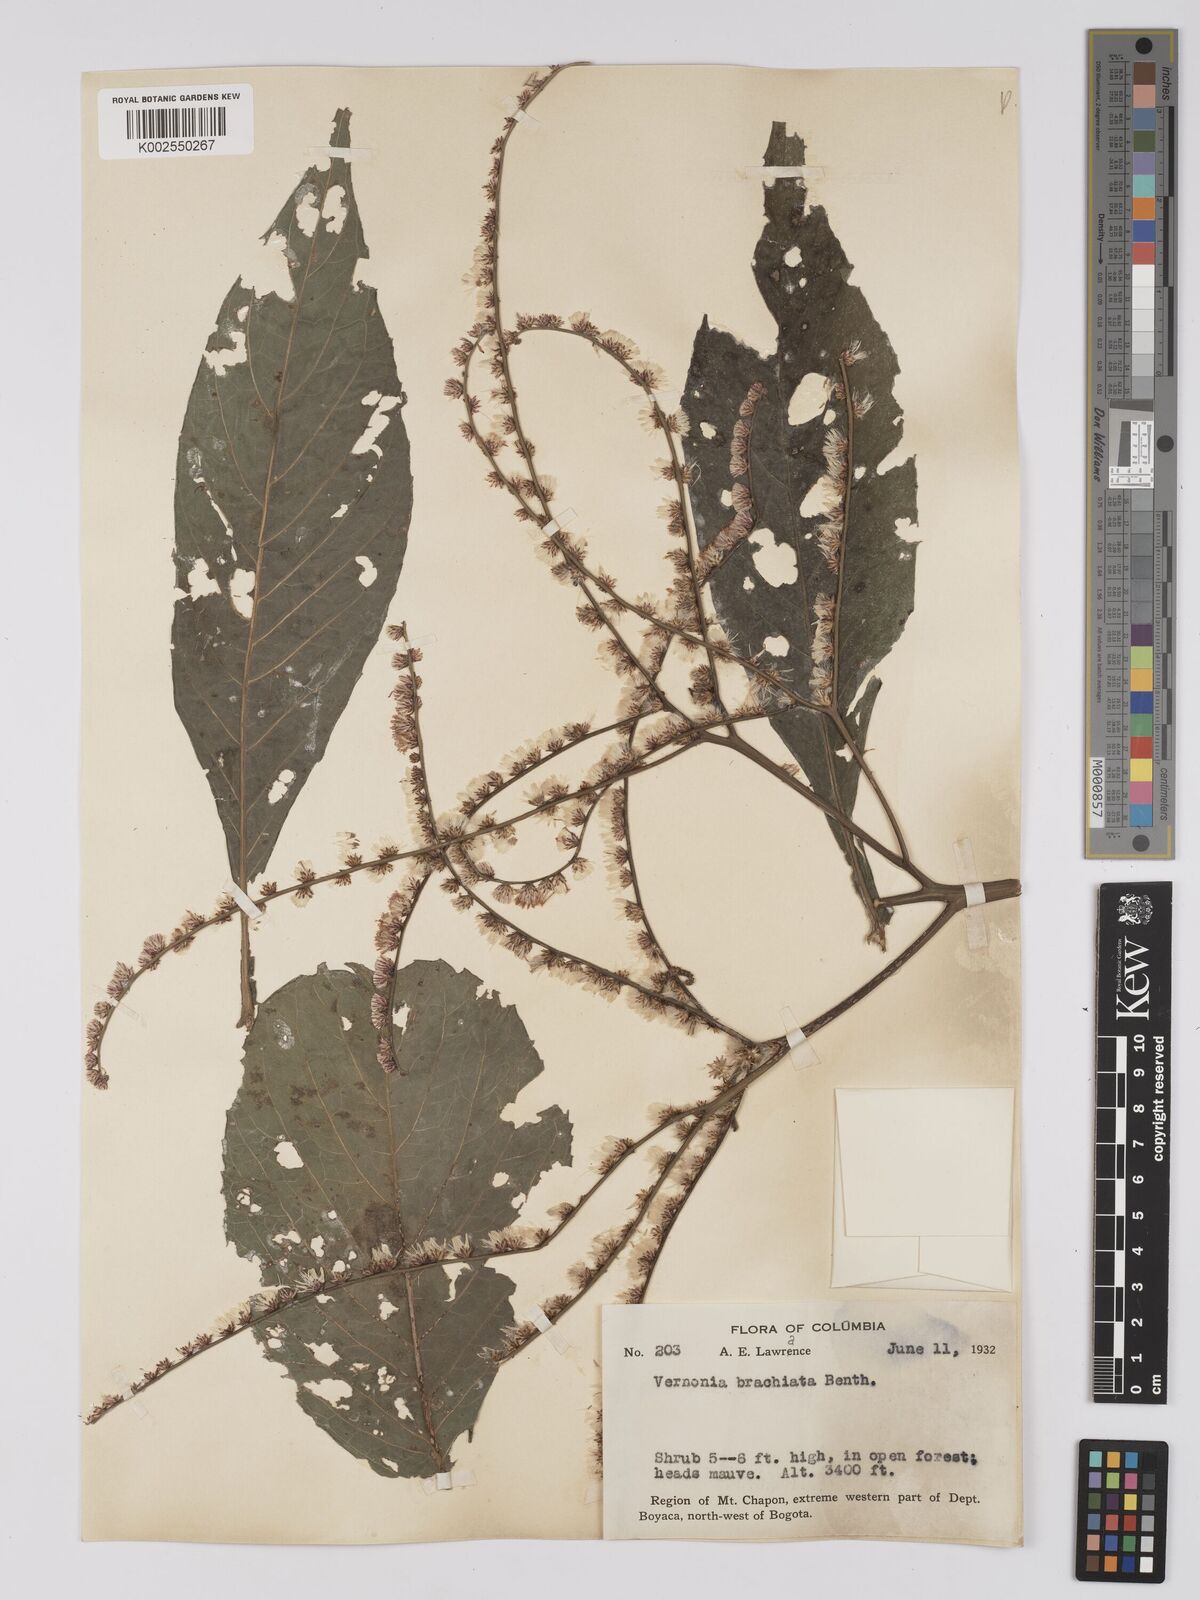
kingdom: Plantae
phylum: Tracheophyta
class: Magnoliopsida
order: Asterales
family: Asteraceae
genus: Eirmocephala
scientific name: Eirmocephala brachiata
